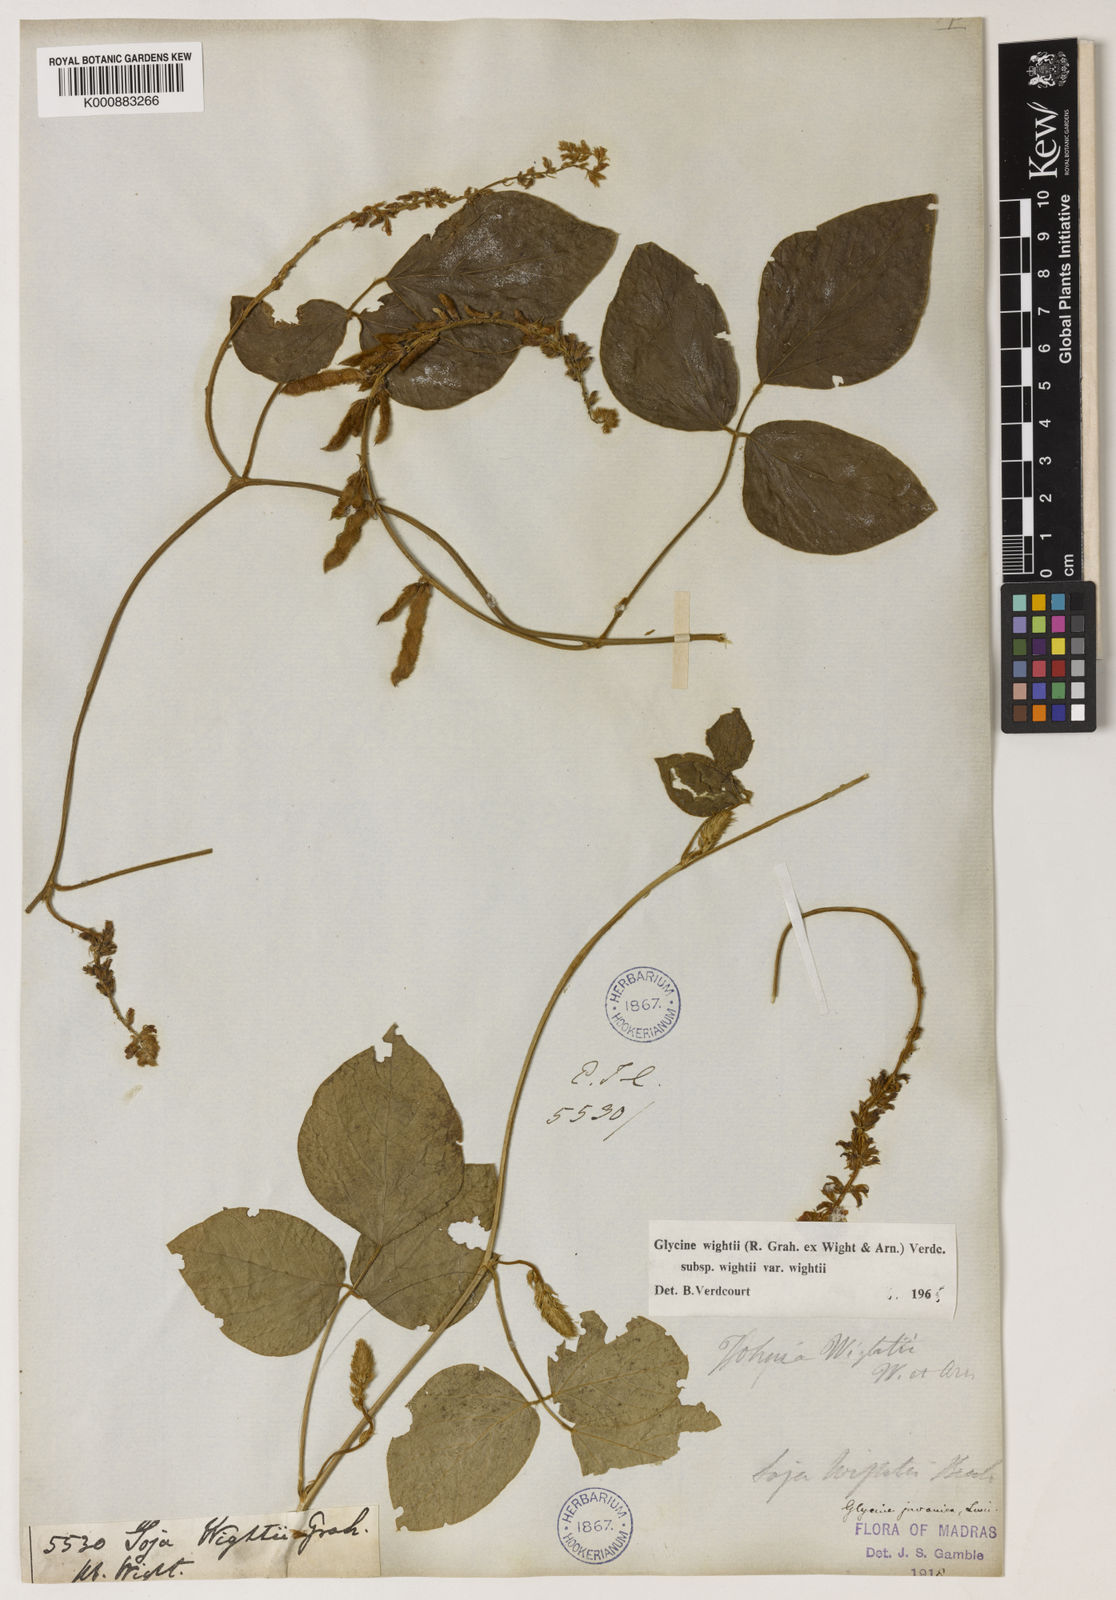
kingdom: Plantae
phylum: Tracheophyta
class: Magnoliopsida
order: Fabales
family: Fabaceae
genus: Pueraria
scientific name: Pueraria montana
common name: Kudzu
